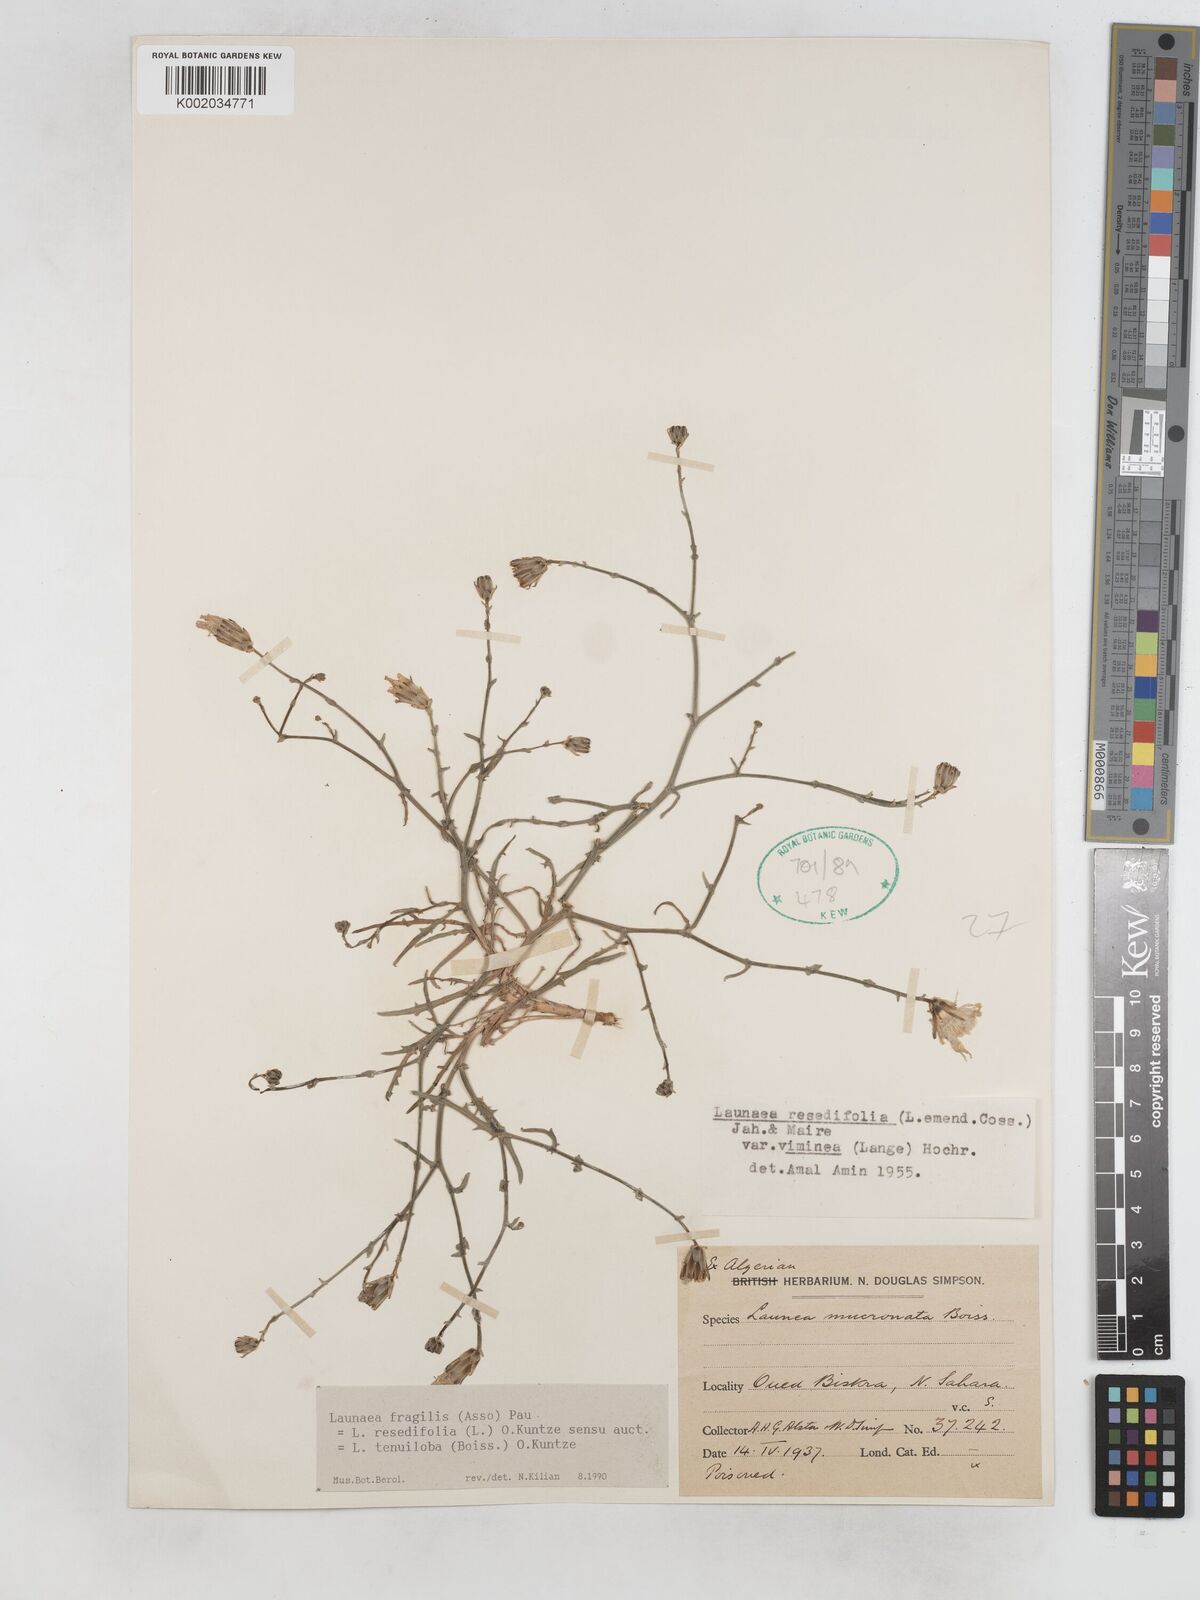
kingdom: Plantae
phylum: Tracheophyta
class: Magnoliopsida
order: Asterales
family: Asteraceae
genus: Launaea
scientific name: Launaea fragilis
